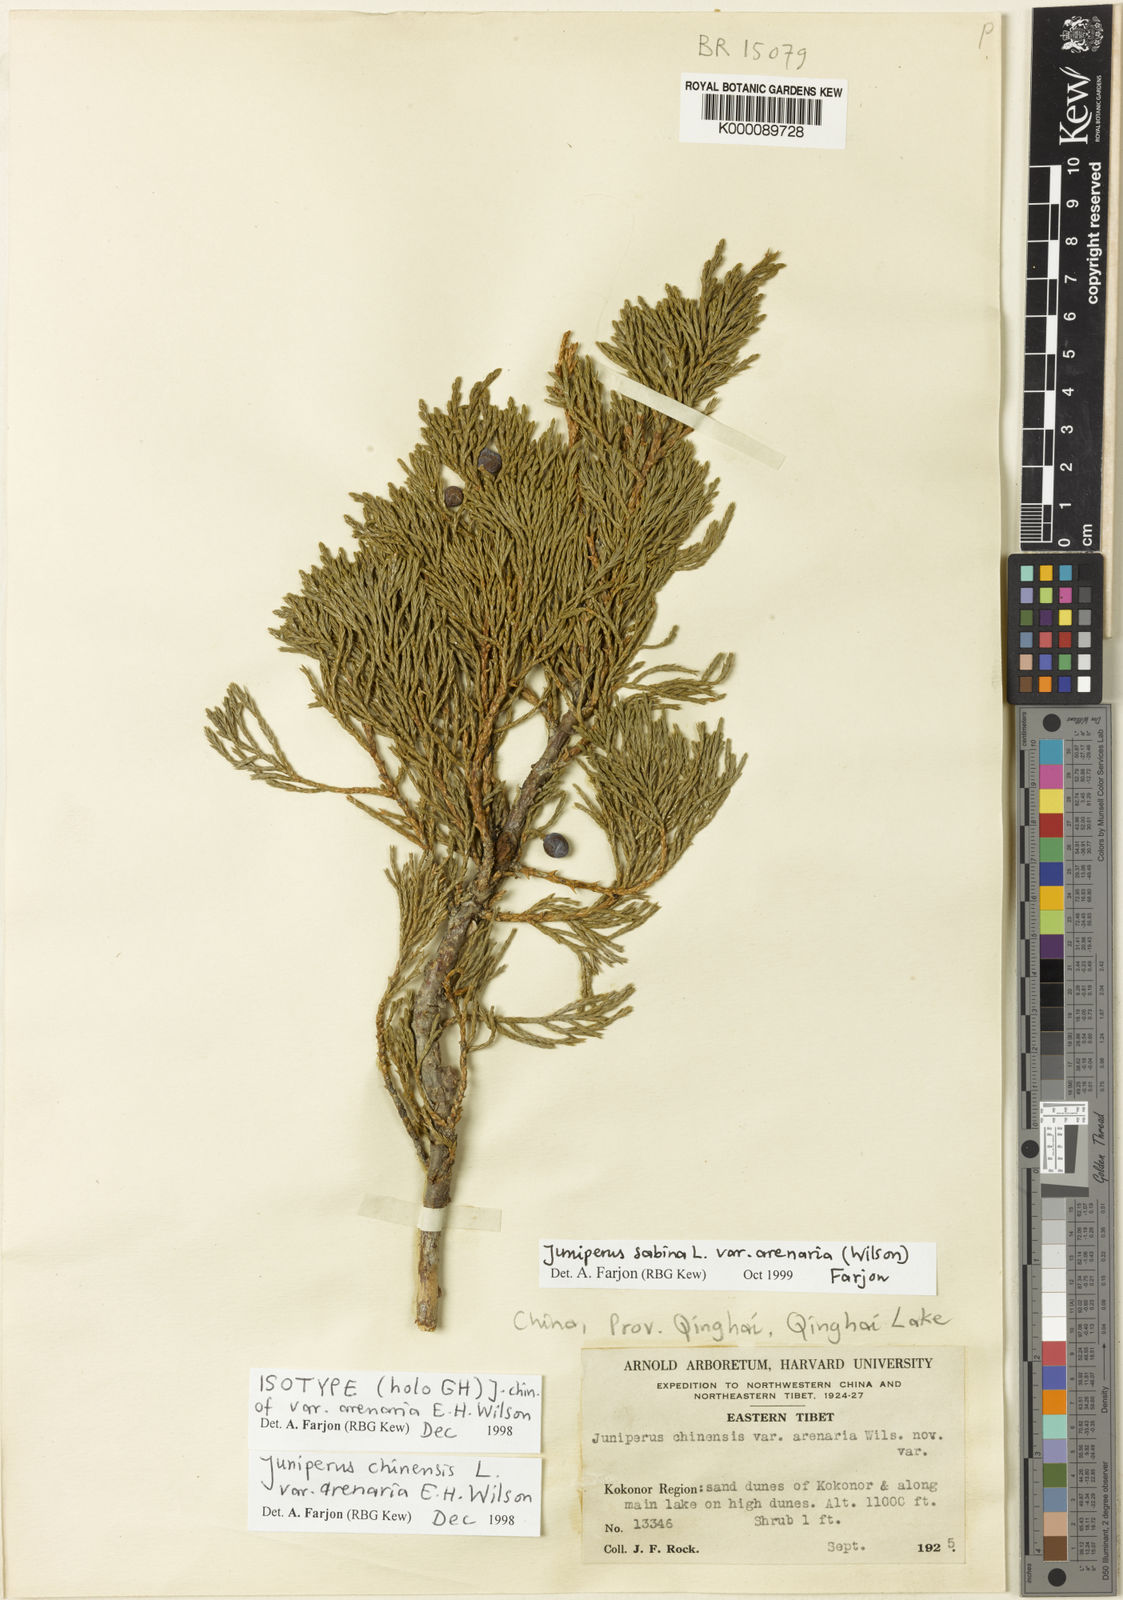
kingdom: Plantae
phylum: Tracheophyta
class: Pinopsida
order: Pinales
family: Cupressaceae
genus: Juniperus
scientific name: Juniperus sabina
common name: Savin
